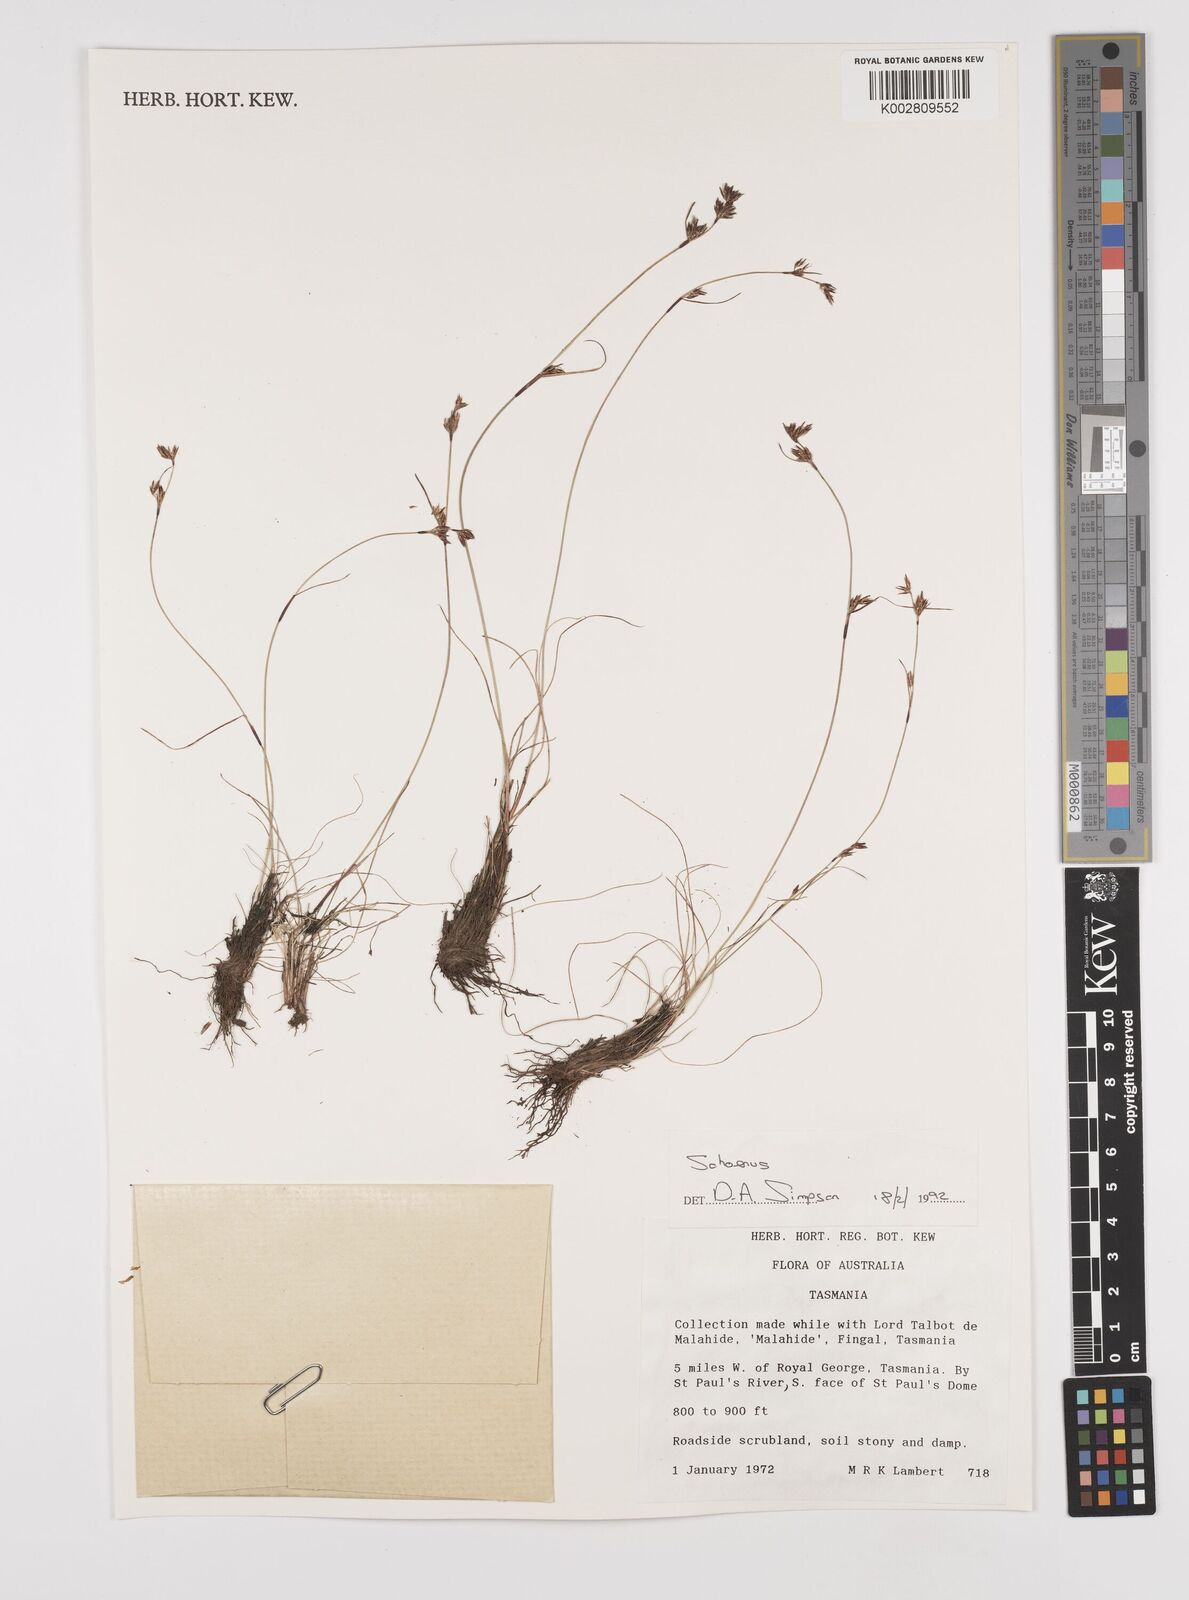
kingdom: Plantae
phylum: Tracheophyta
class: Liliopsida
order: Poales
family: Cyperaceae
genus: Schoenus
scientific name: Schoenus
